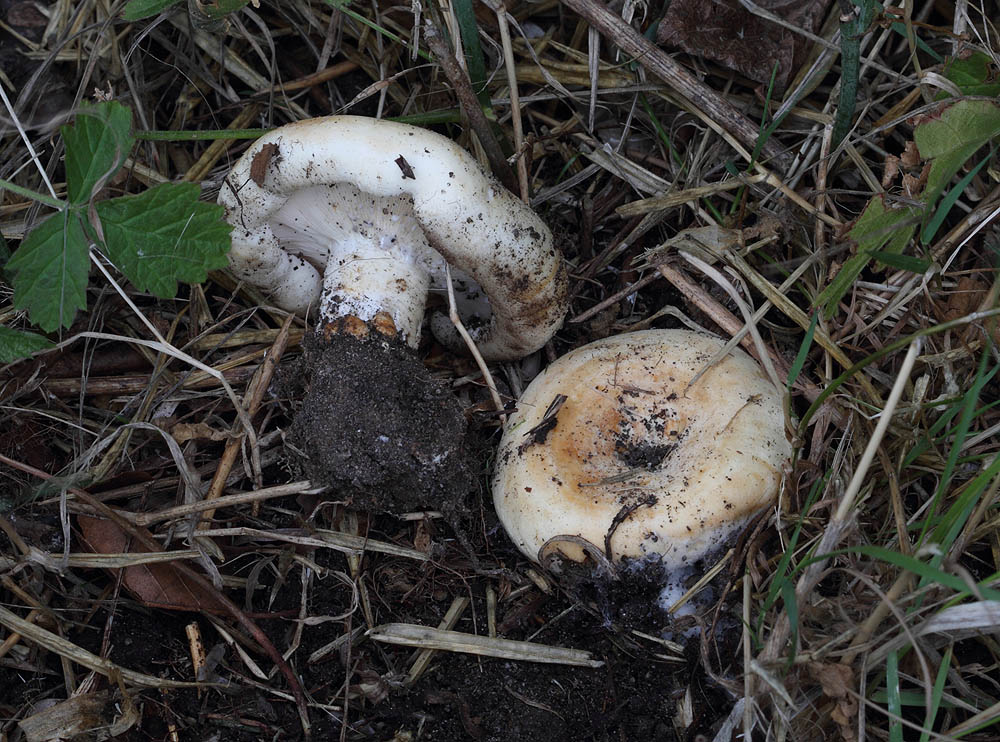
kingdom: Fungi
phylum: Basidiomycota
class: Agaricomycetes
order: Russulales
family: Russulaceae
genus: Lactarius
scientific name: Lactarius evosmus
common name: bæltet mælkehat
